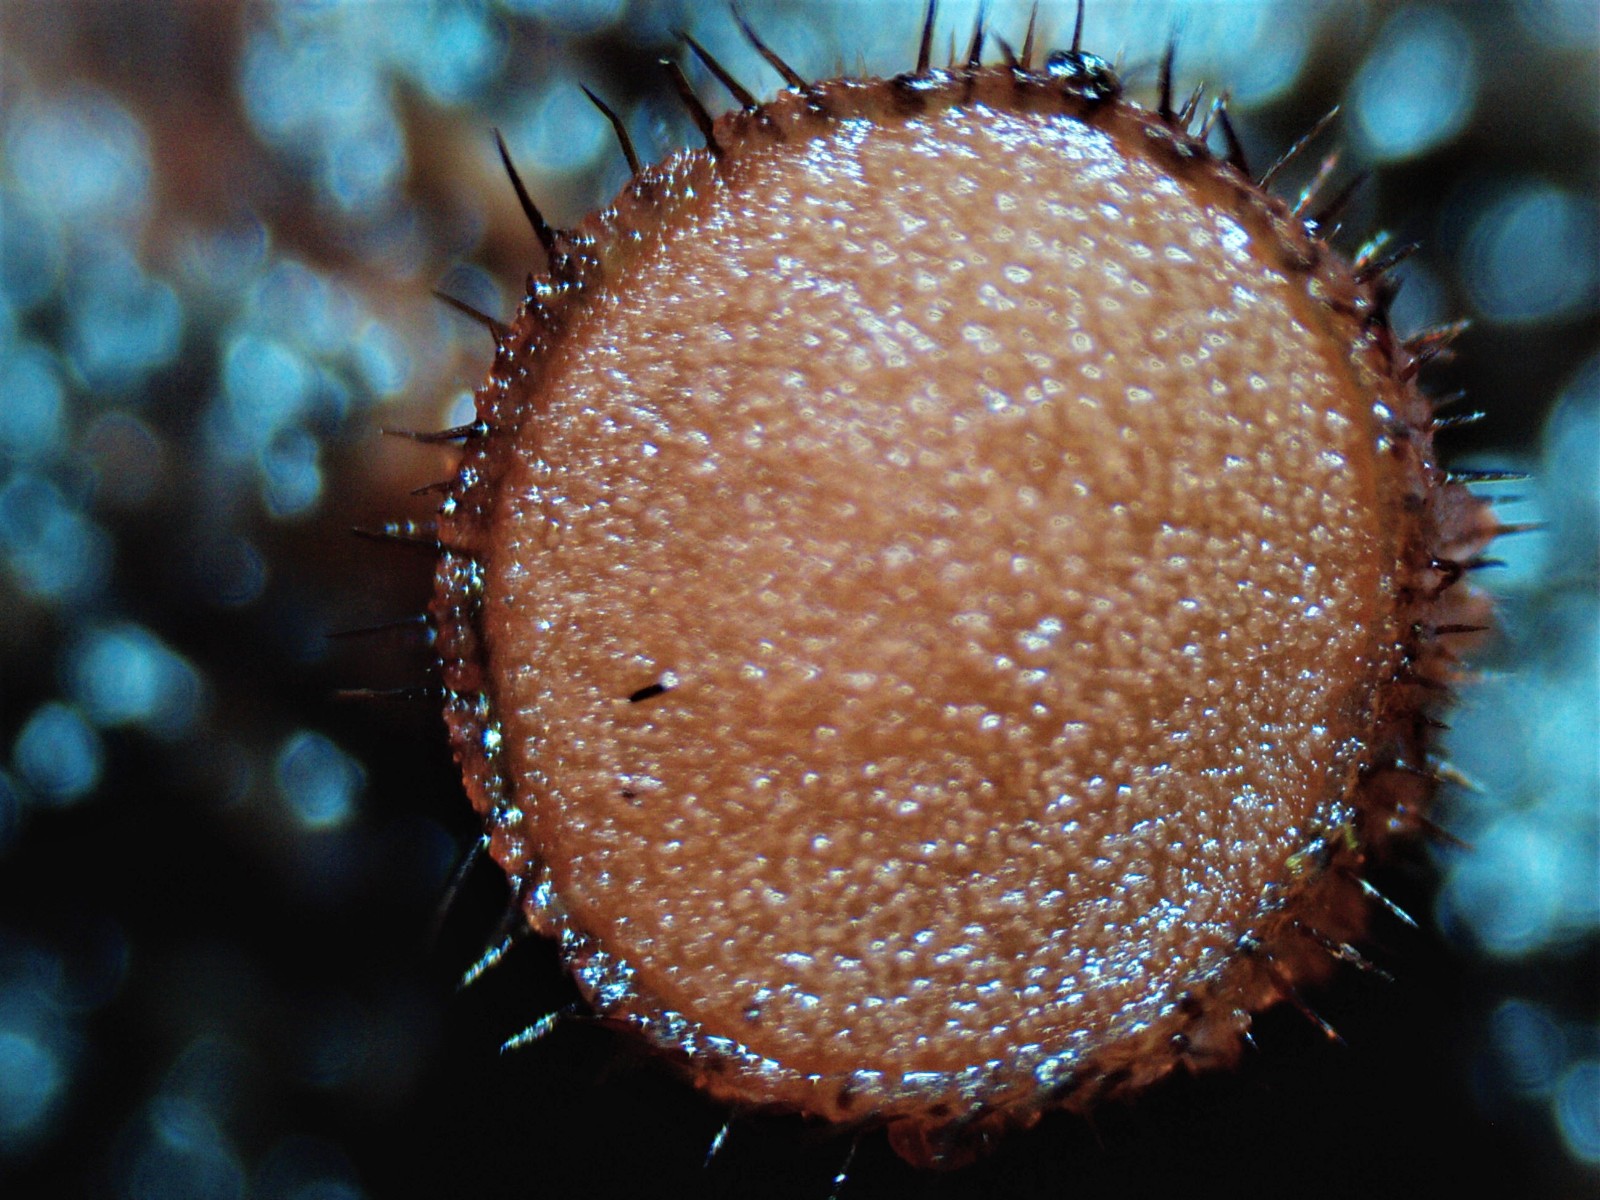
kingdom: Fungi
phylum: Ascomycota
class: Pezizomycetes
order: Pezizales
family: Pyronemataceae
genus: Scutellinia
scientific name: Scutellinia
